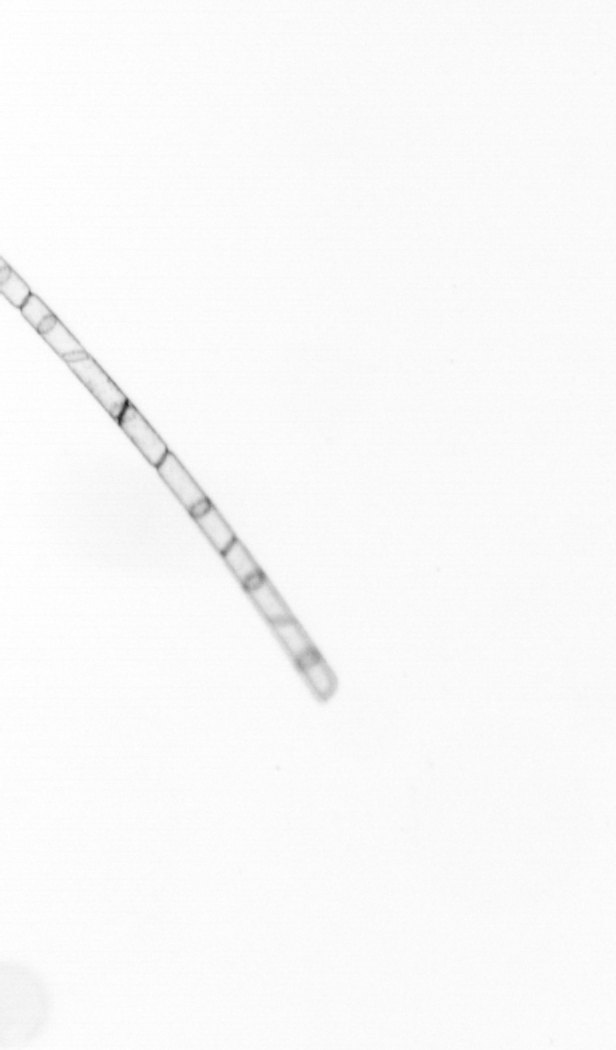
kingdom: Chromista
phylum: Ochrophyta
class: Bacillariophyceae
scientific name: Bacillariophyceae
